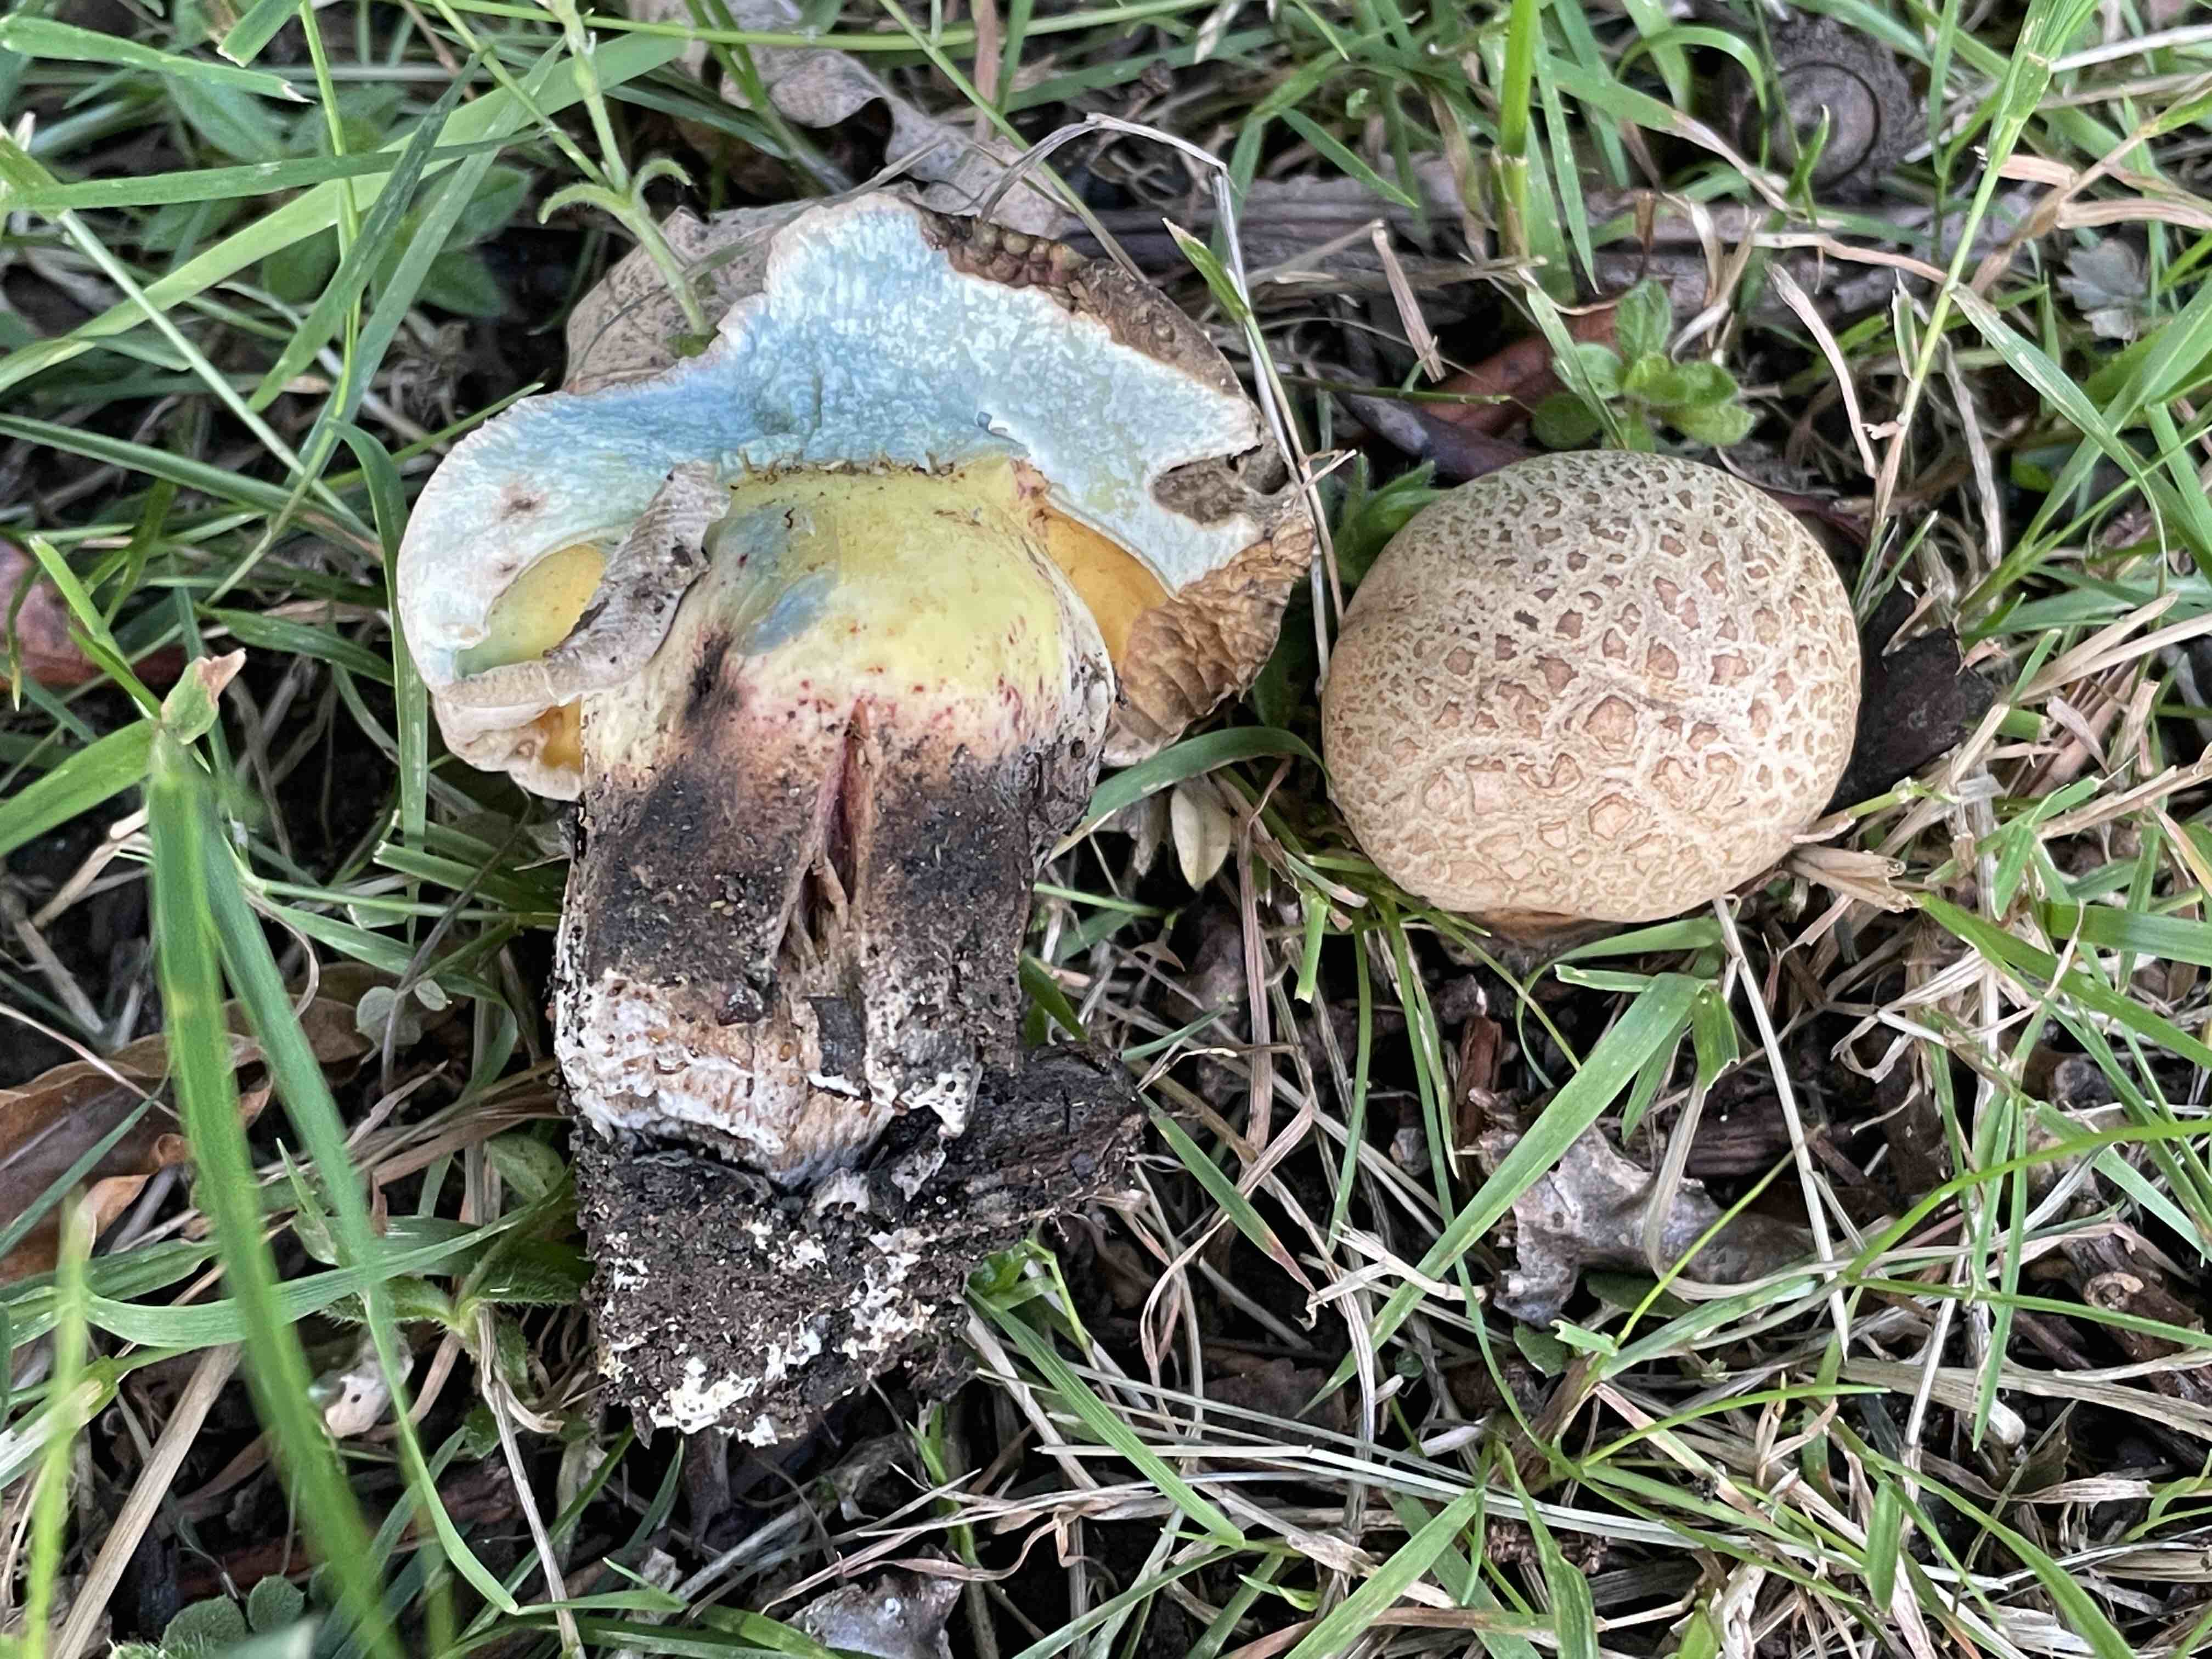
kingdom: Fungi
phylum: Basidiomycota
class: Agaricomycetes
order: Boletales
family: Boletaceae
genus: Caloboletus
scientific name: Caloboletus radicans
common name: rod-rørhat
